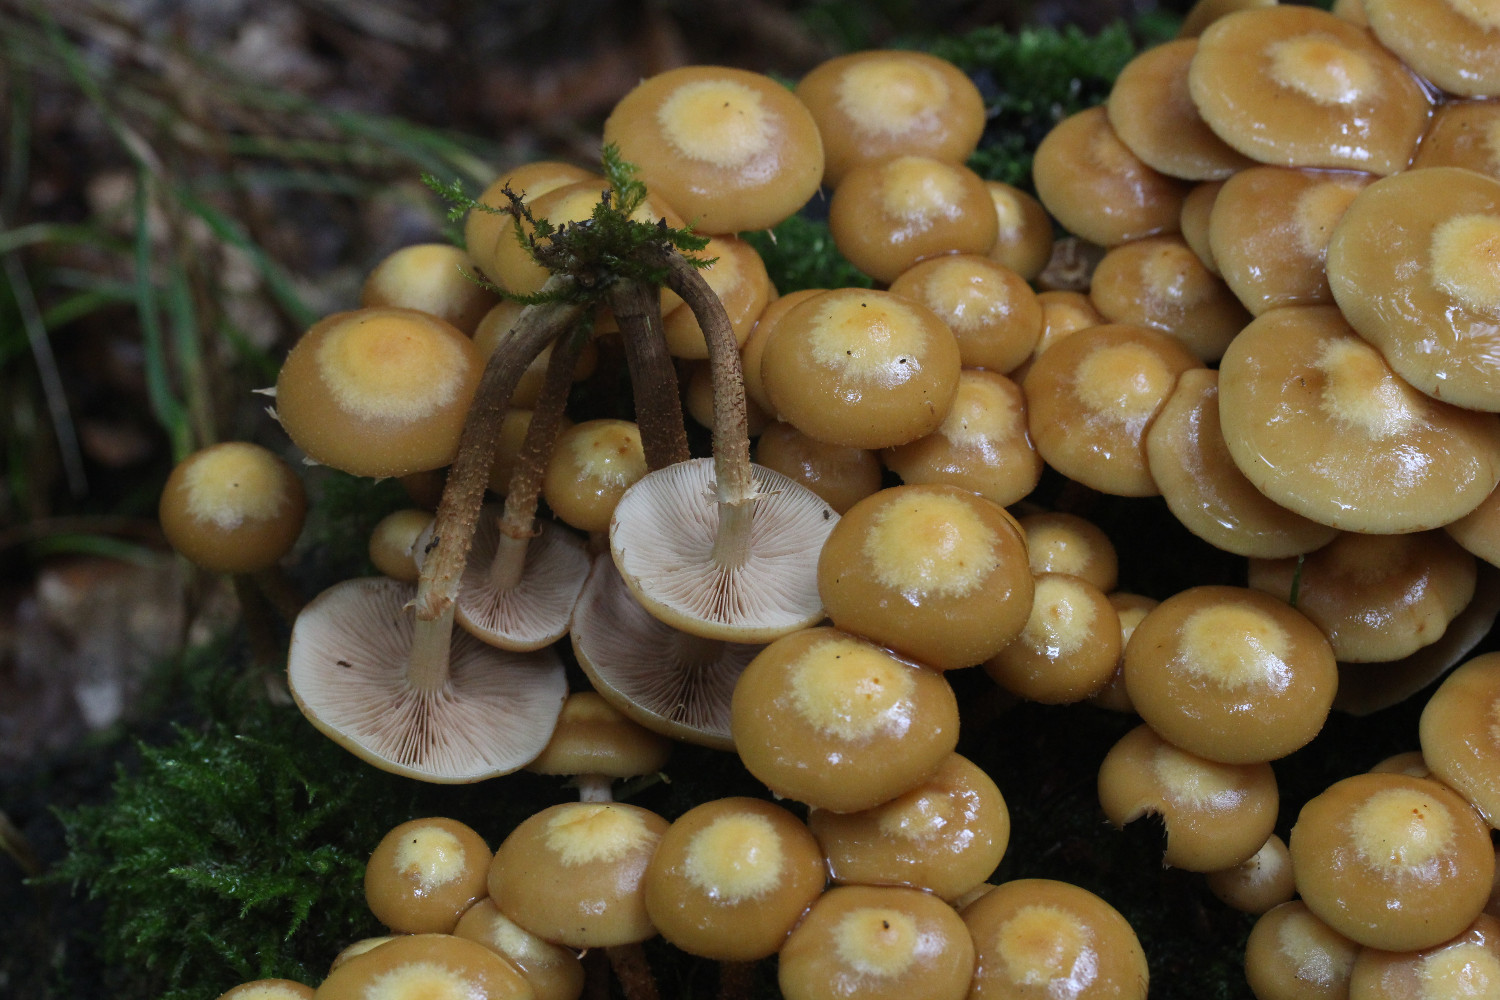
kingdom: Fungi
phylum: Basidiomycota
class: Agaricomycetes
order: Agaricales
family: Strophariaceae
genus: Kuehneromyces
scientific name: Kuehneromyces mutabilis
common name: foranderlig skælhat
